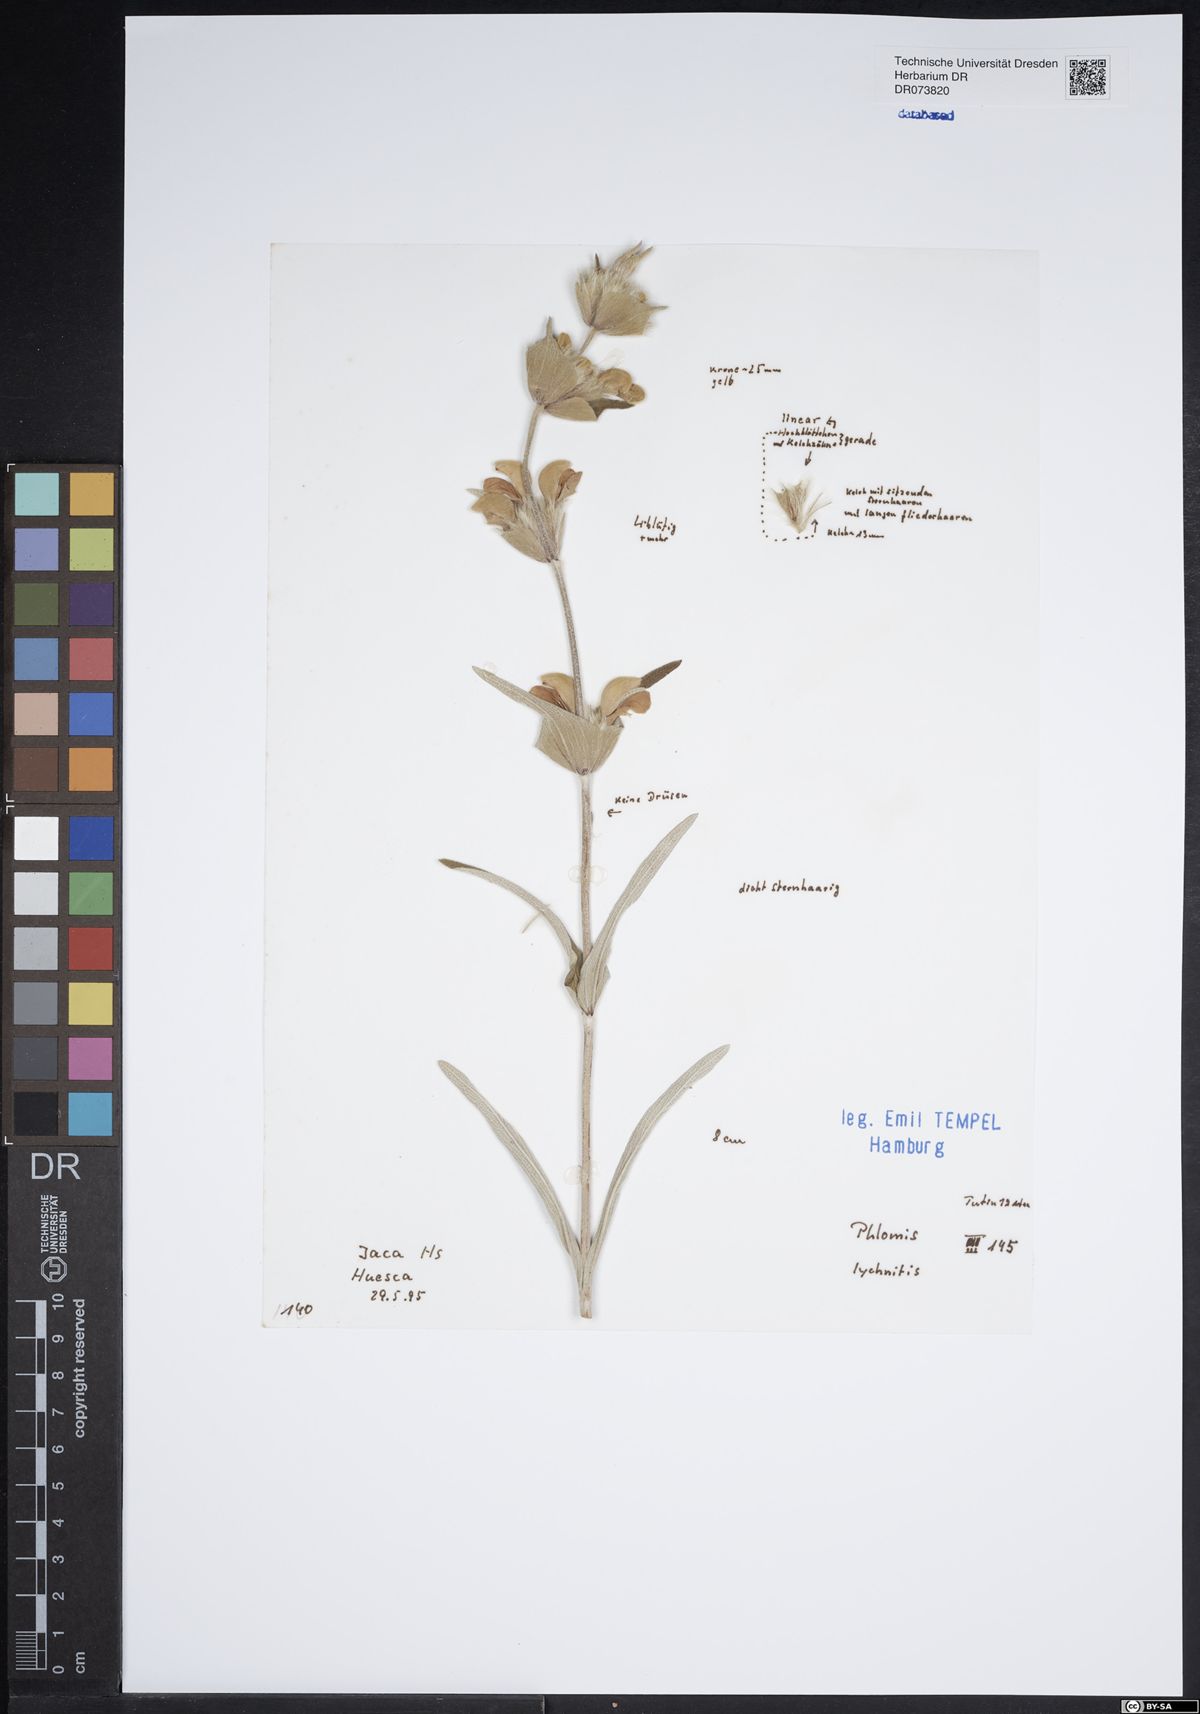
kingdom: Plantae
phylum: Tracheophyta
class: Magnoliopsida
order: Lamiales
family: Lamiaceae
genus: Phlomis
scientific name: Phlomis lychnitis
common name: Lampwickplant
